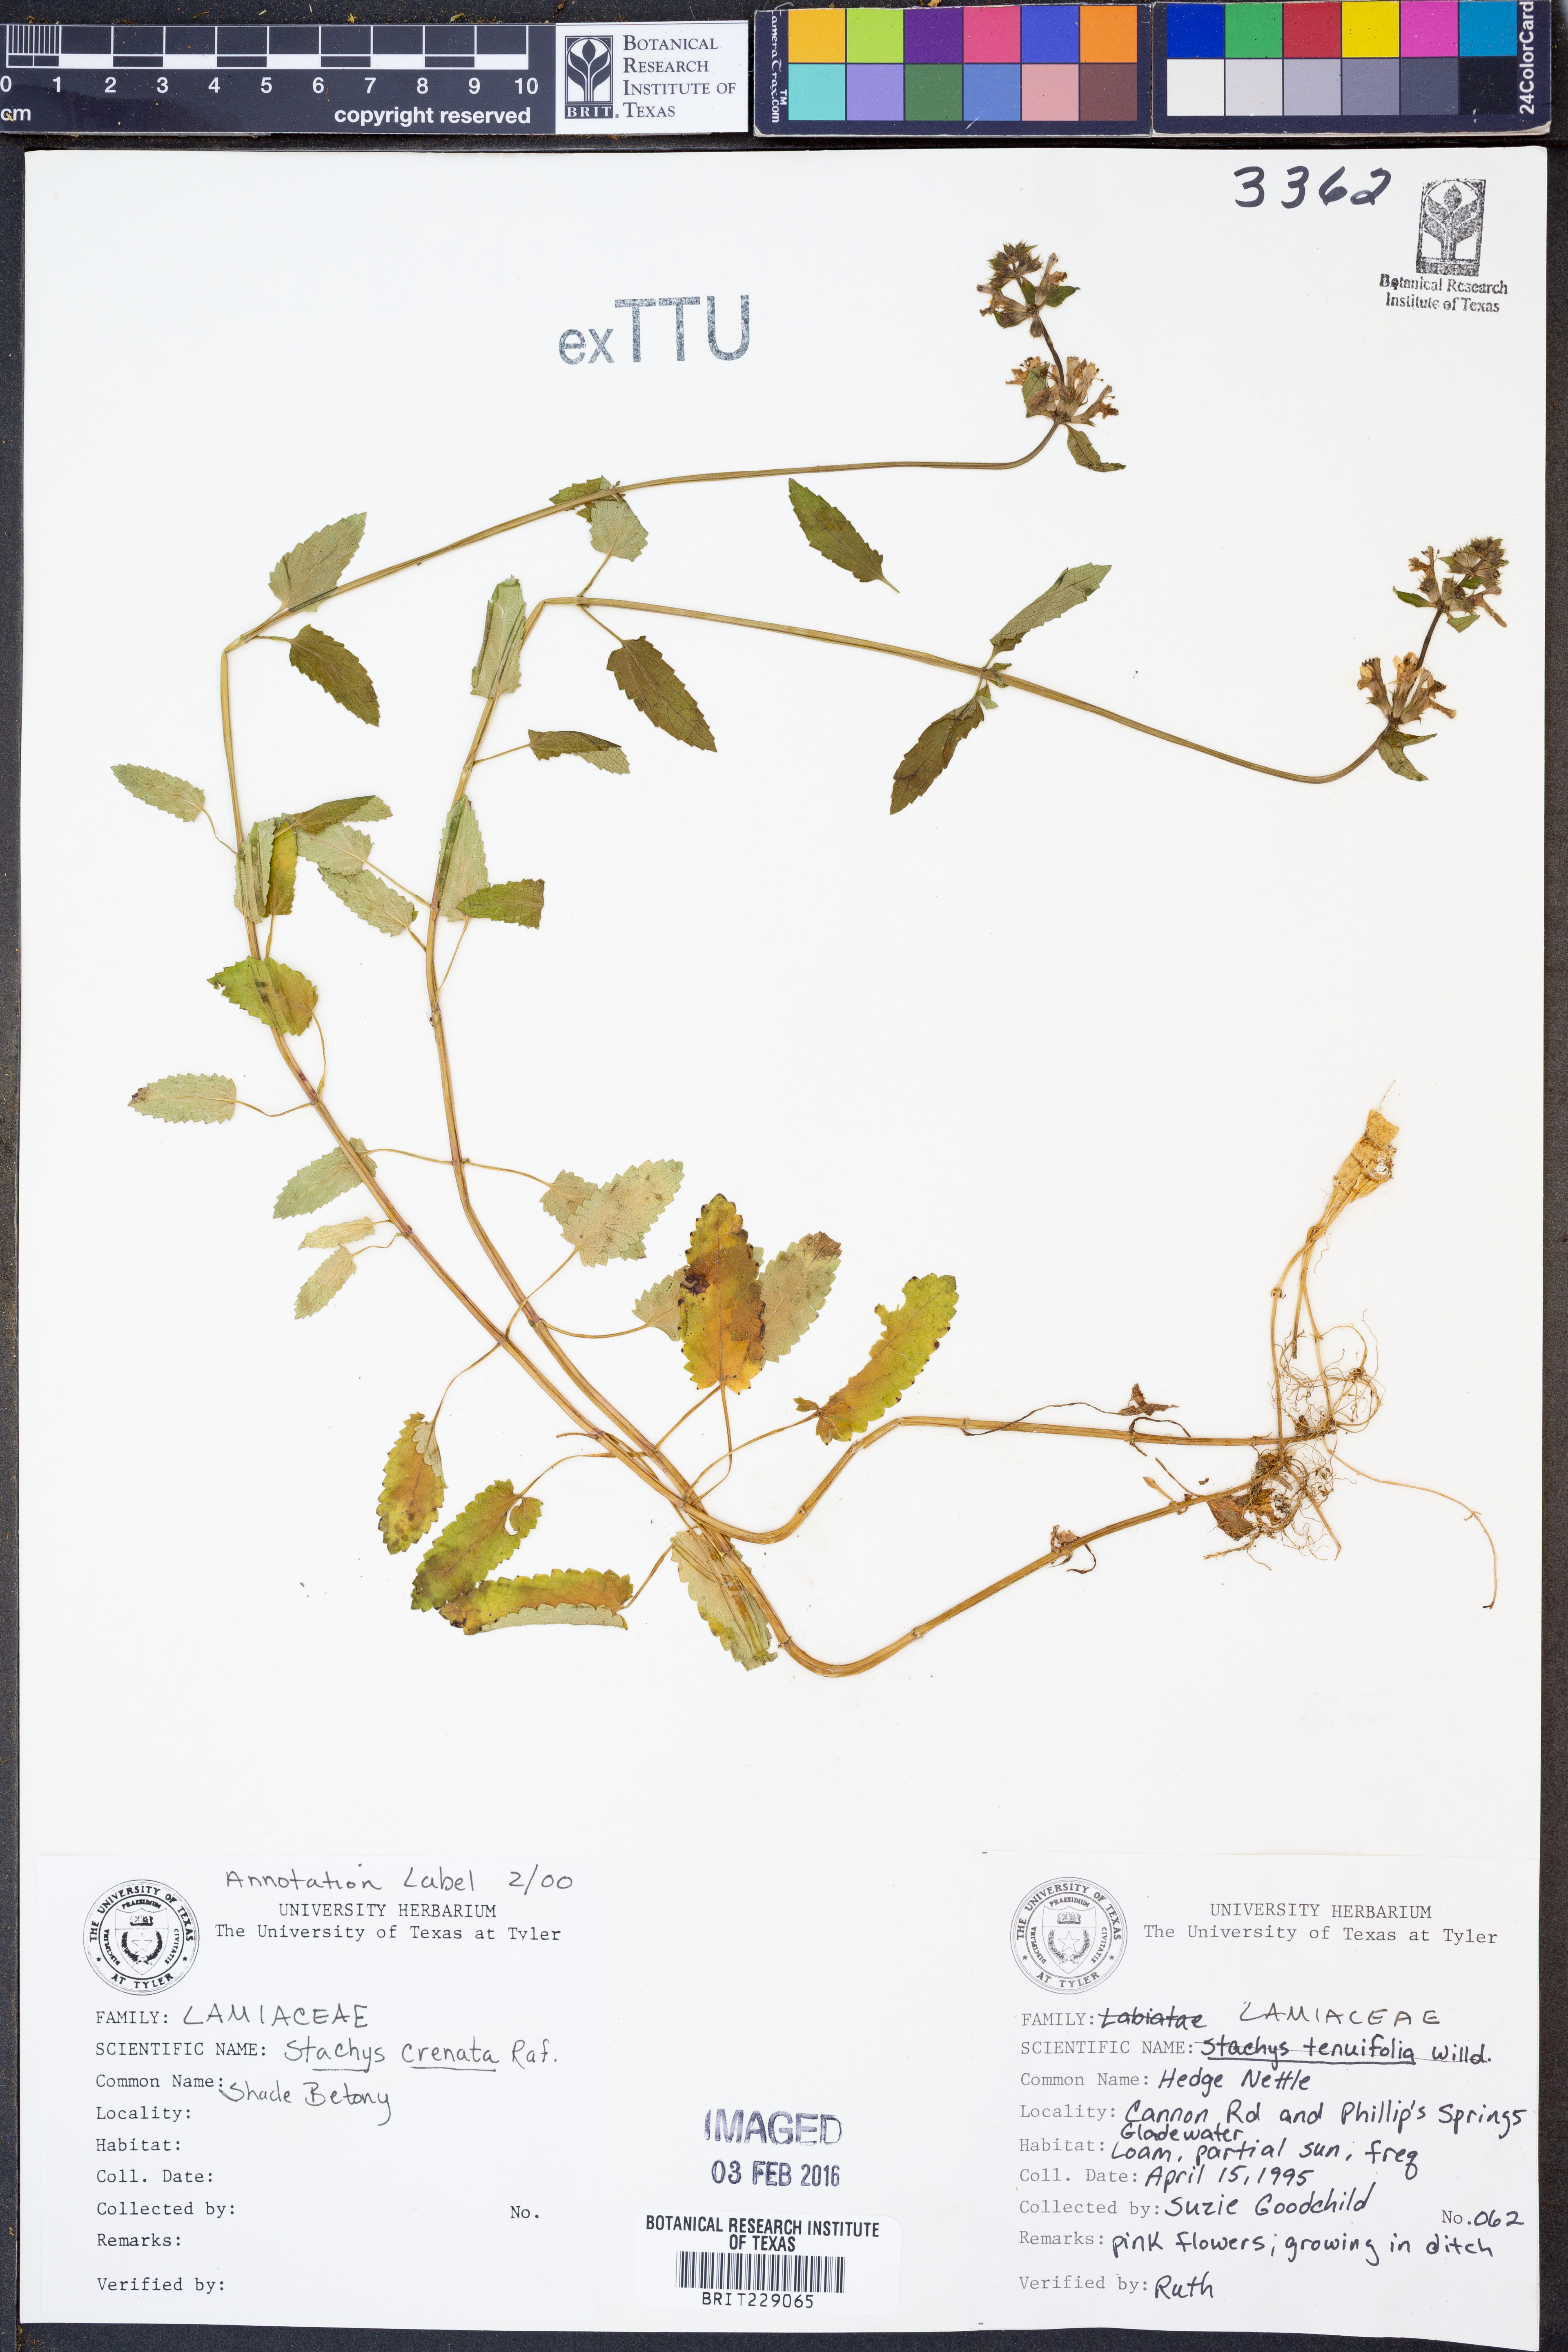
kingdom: Plantae
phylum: Tracheophyta
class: Magnoliopsida
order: Lamiales
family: Lamiaceae
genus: Stachys
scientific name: Stachys agraria
